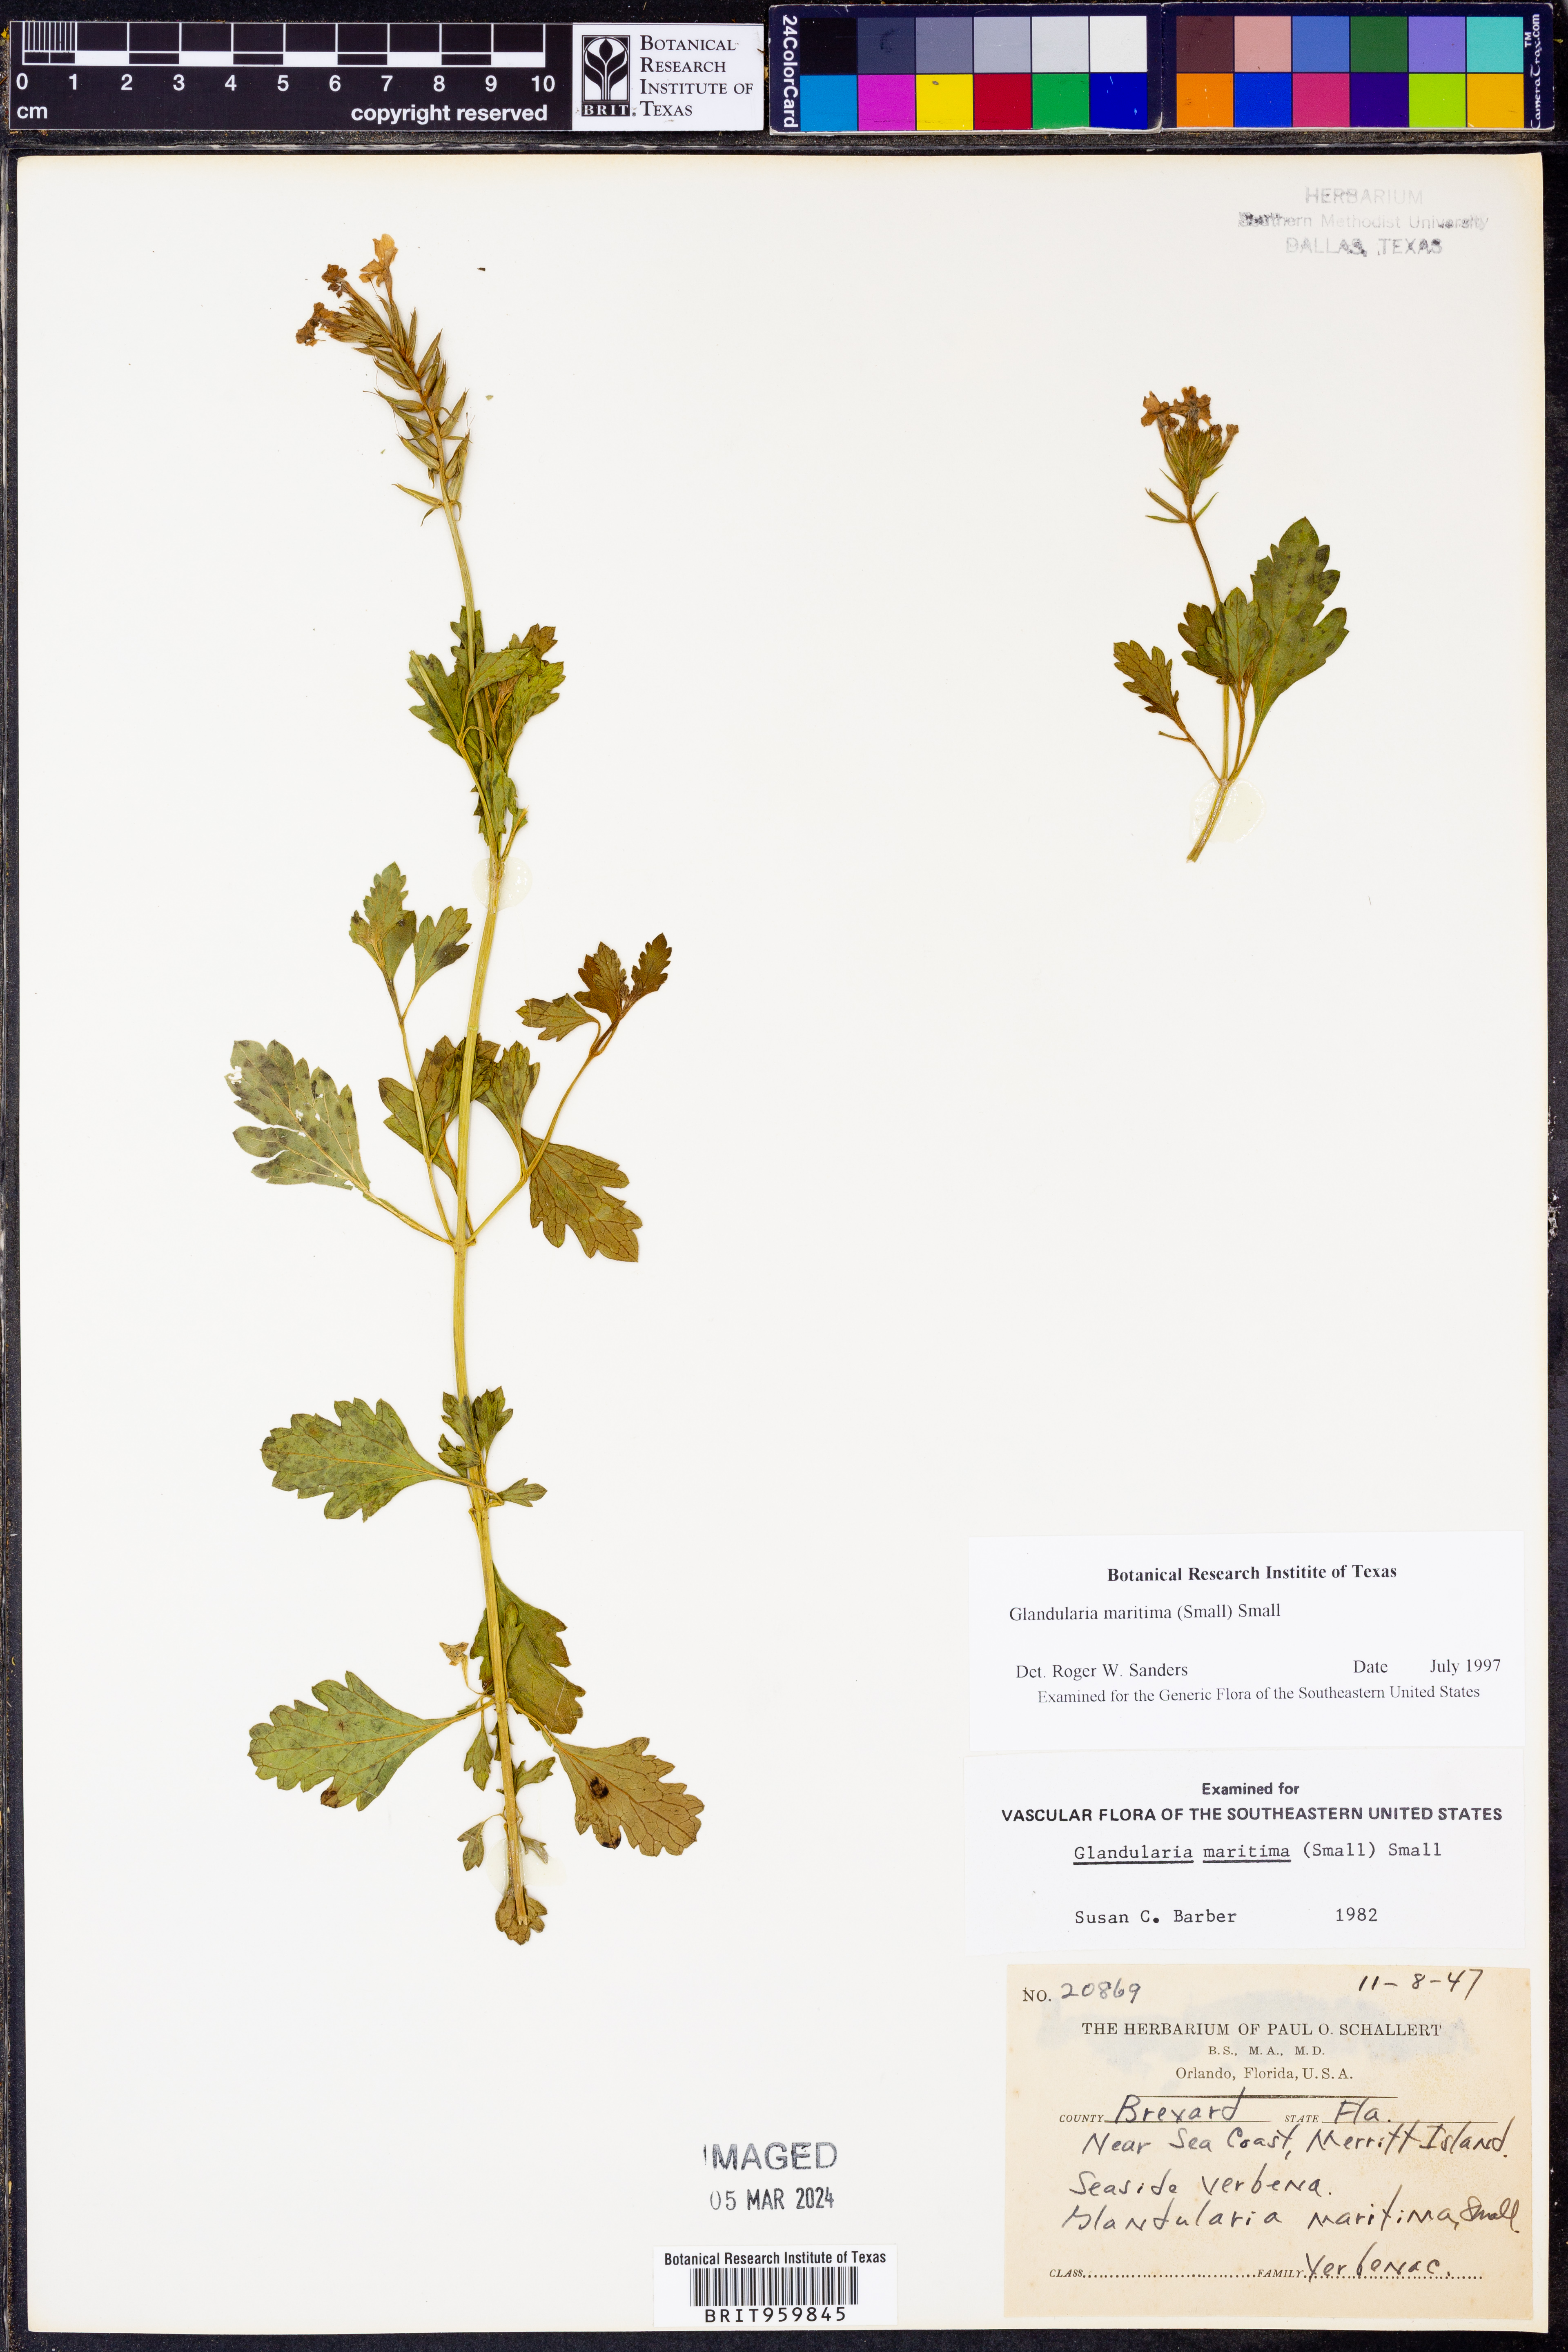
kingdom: Plantae
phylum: Tracheophyta
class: Magnoliopsida
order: Lamiales
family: Verbenaceae
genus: Verbena
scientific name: Verbena maritima
